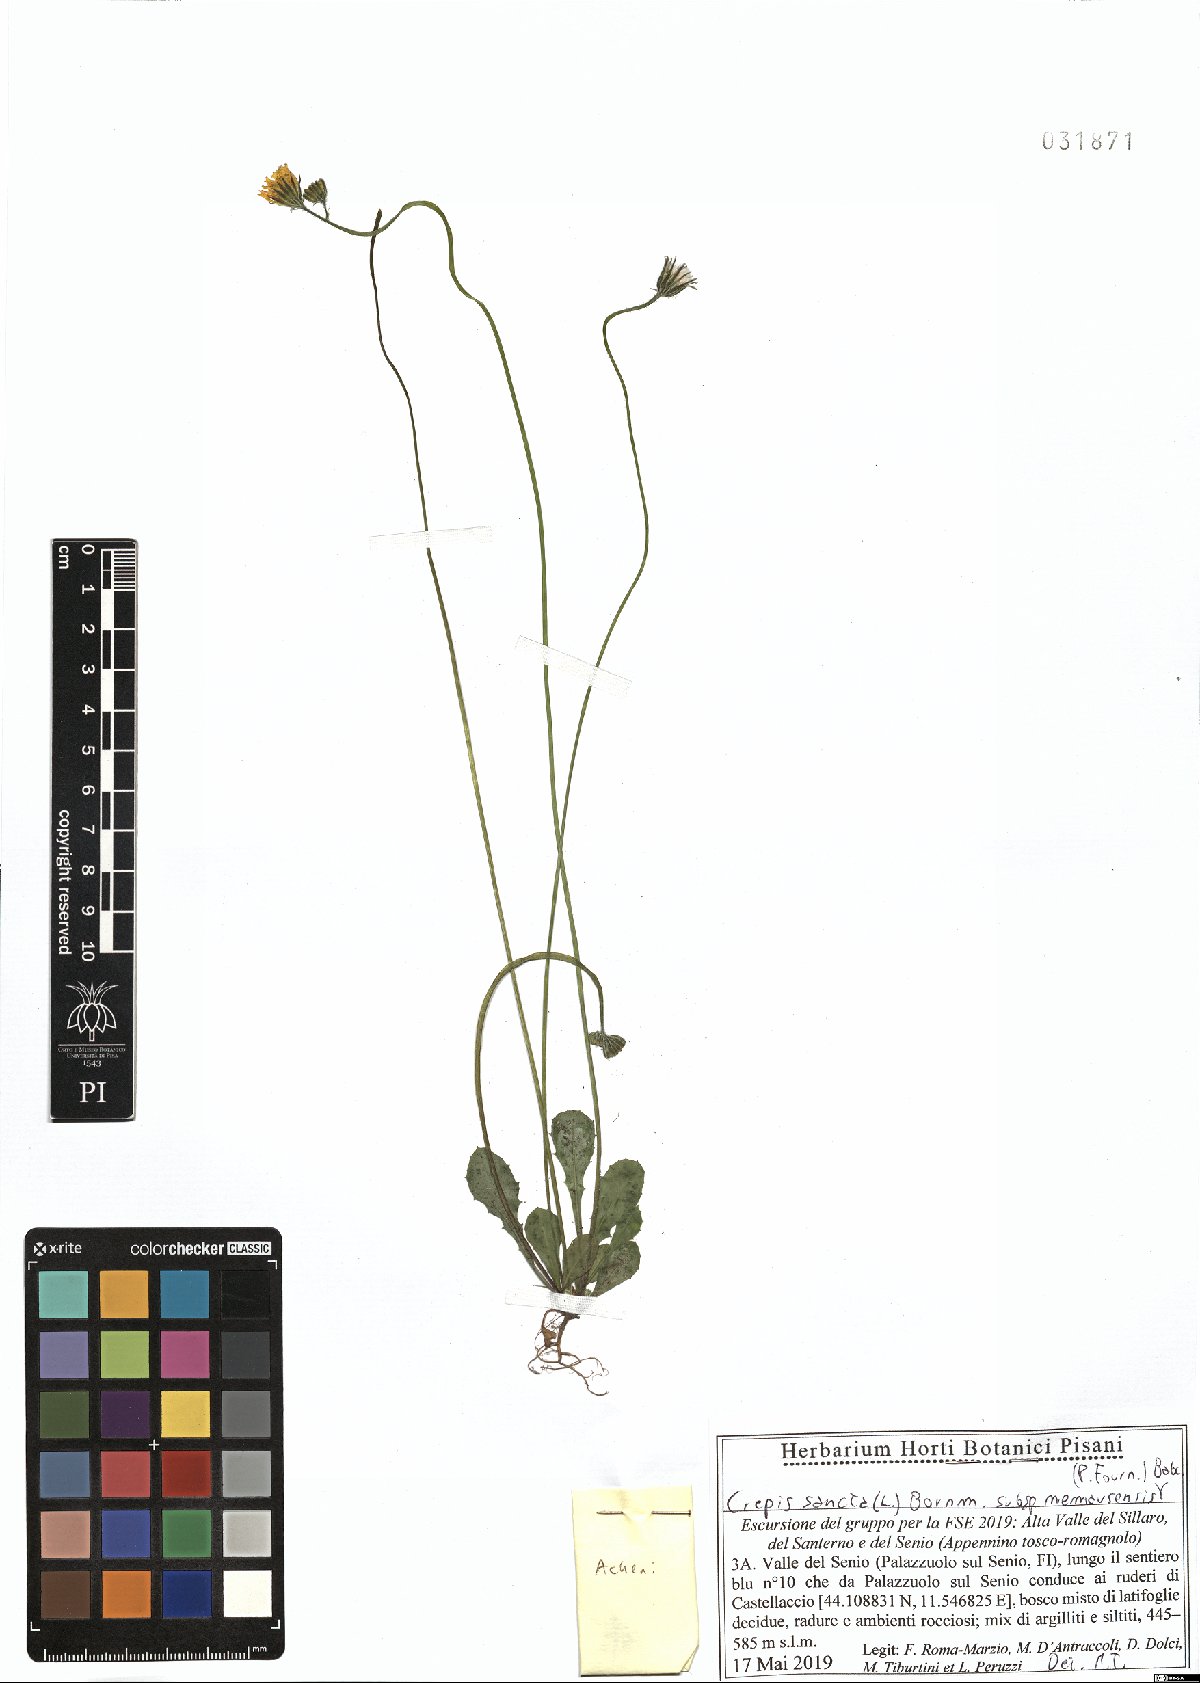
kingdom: Plantae
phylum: Tracheophyta
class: Magnoliopsida
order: Asterales
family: Asteraceae
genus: Crepis
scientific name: Crepis sancta
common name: Hawk's-beard
